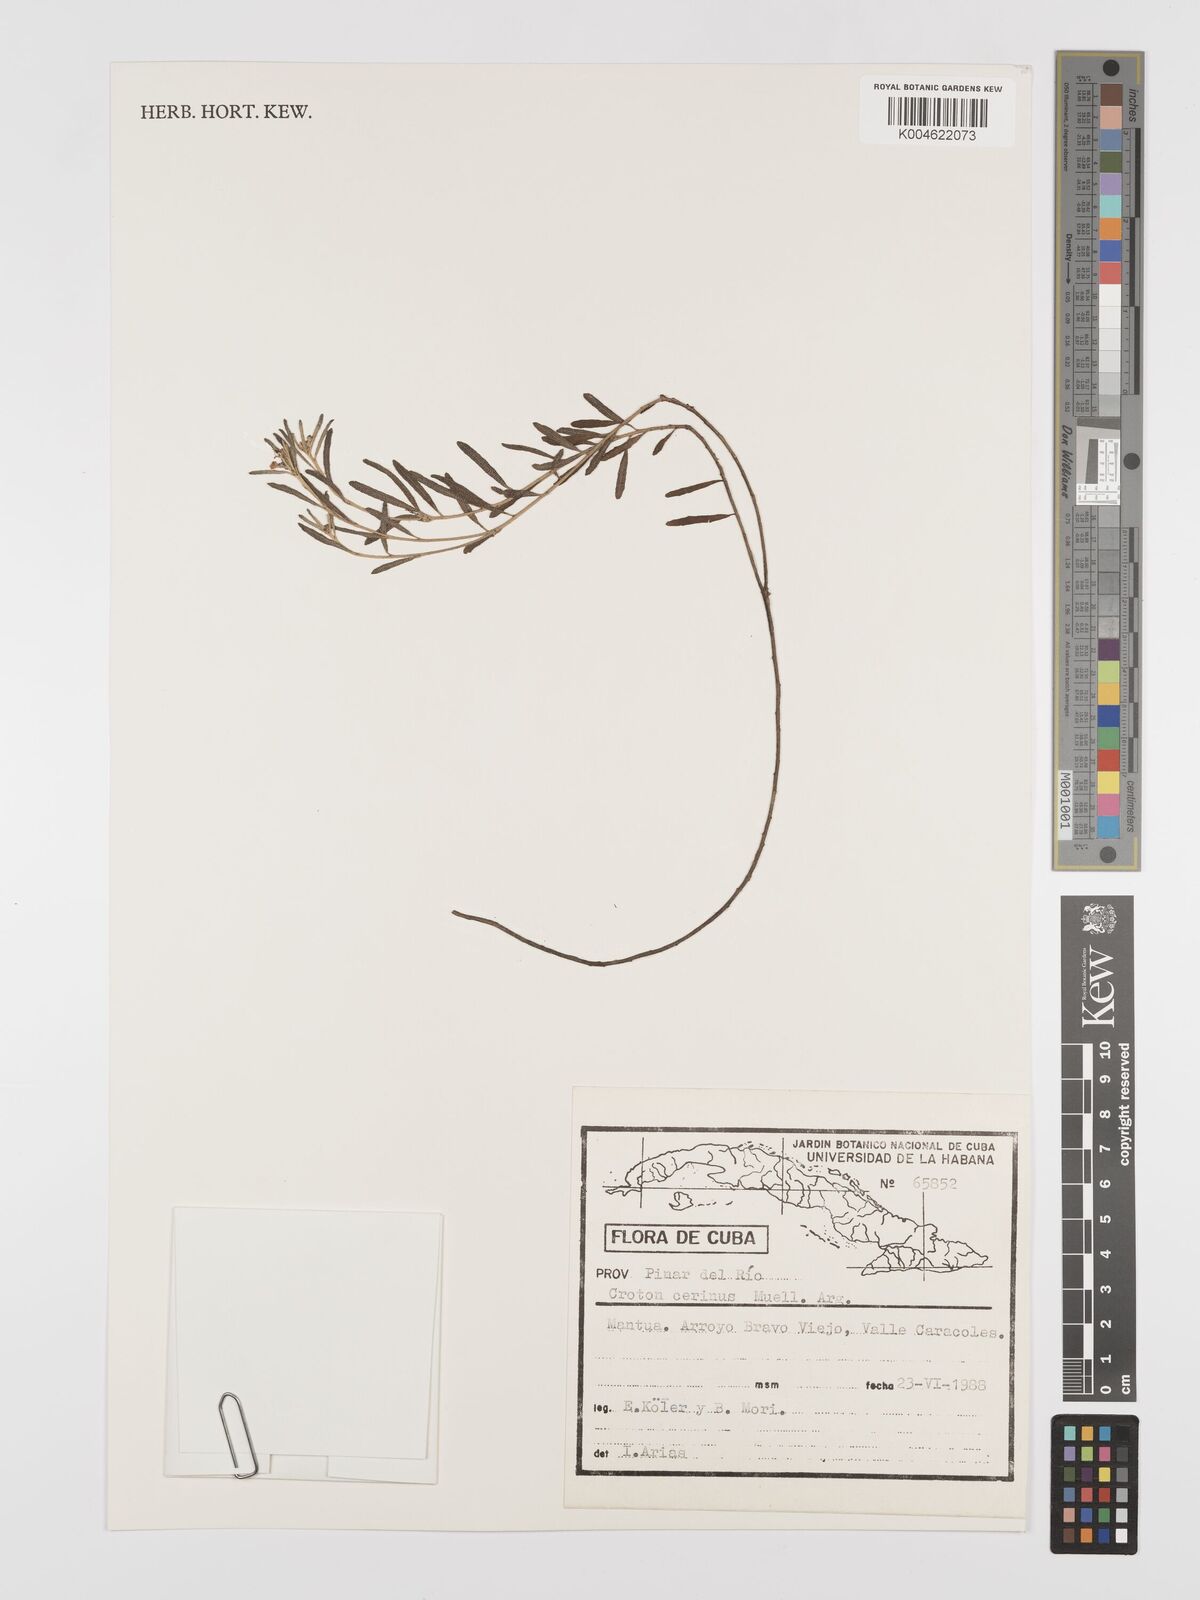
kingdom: Plantae
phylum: Tracheophyta
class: Magnoliopsida
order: Malpighiales
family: Euphorbiaceae
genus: Croton
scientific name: Croton cerinus
